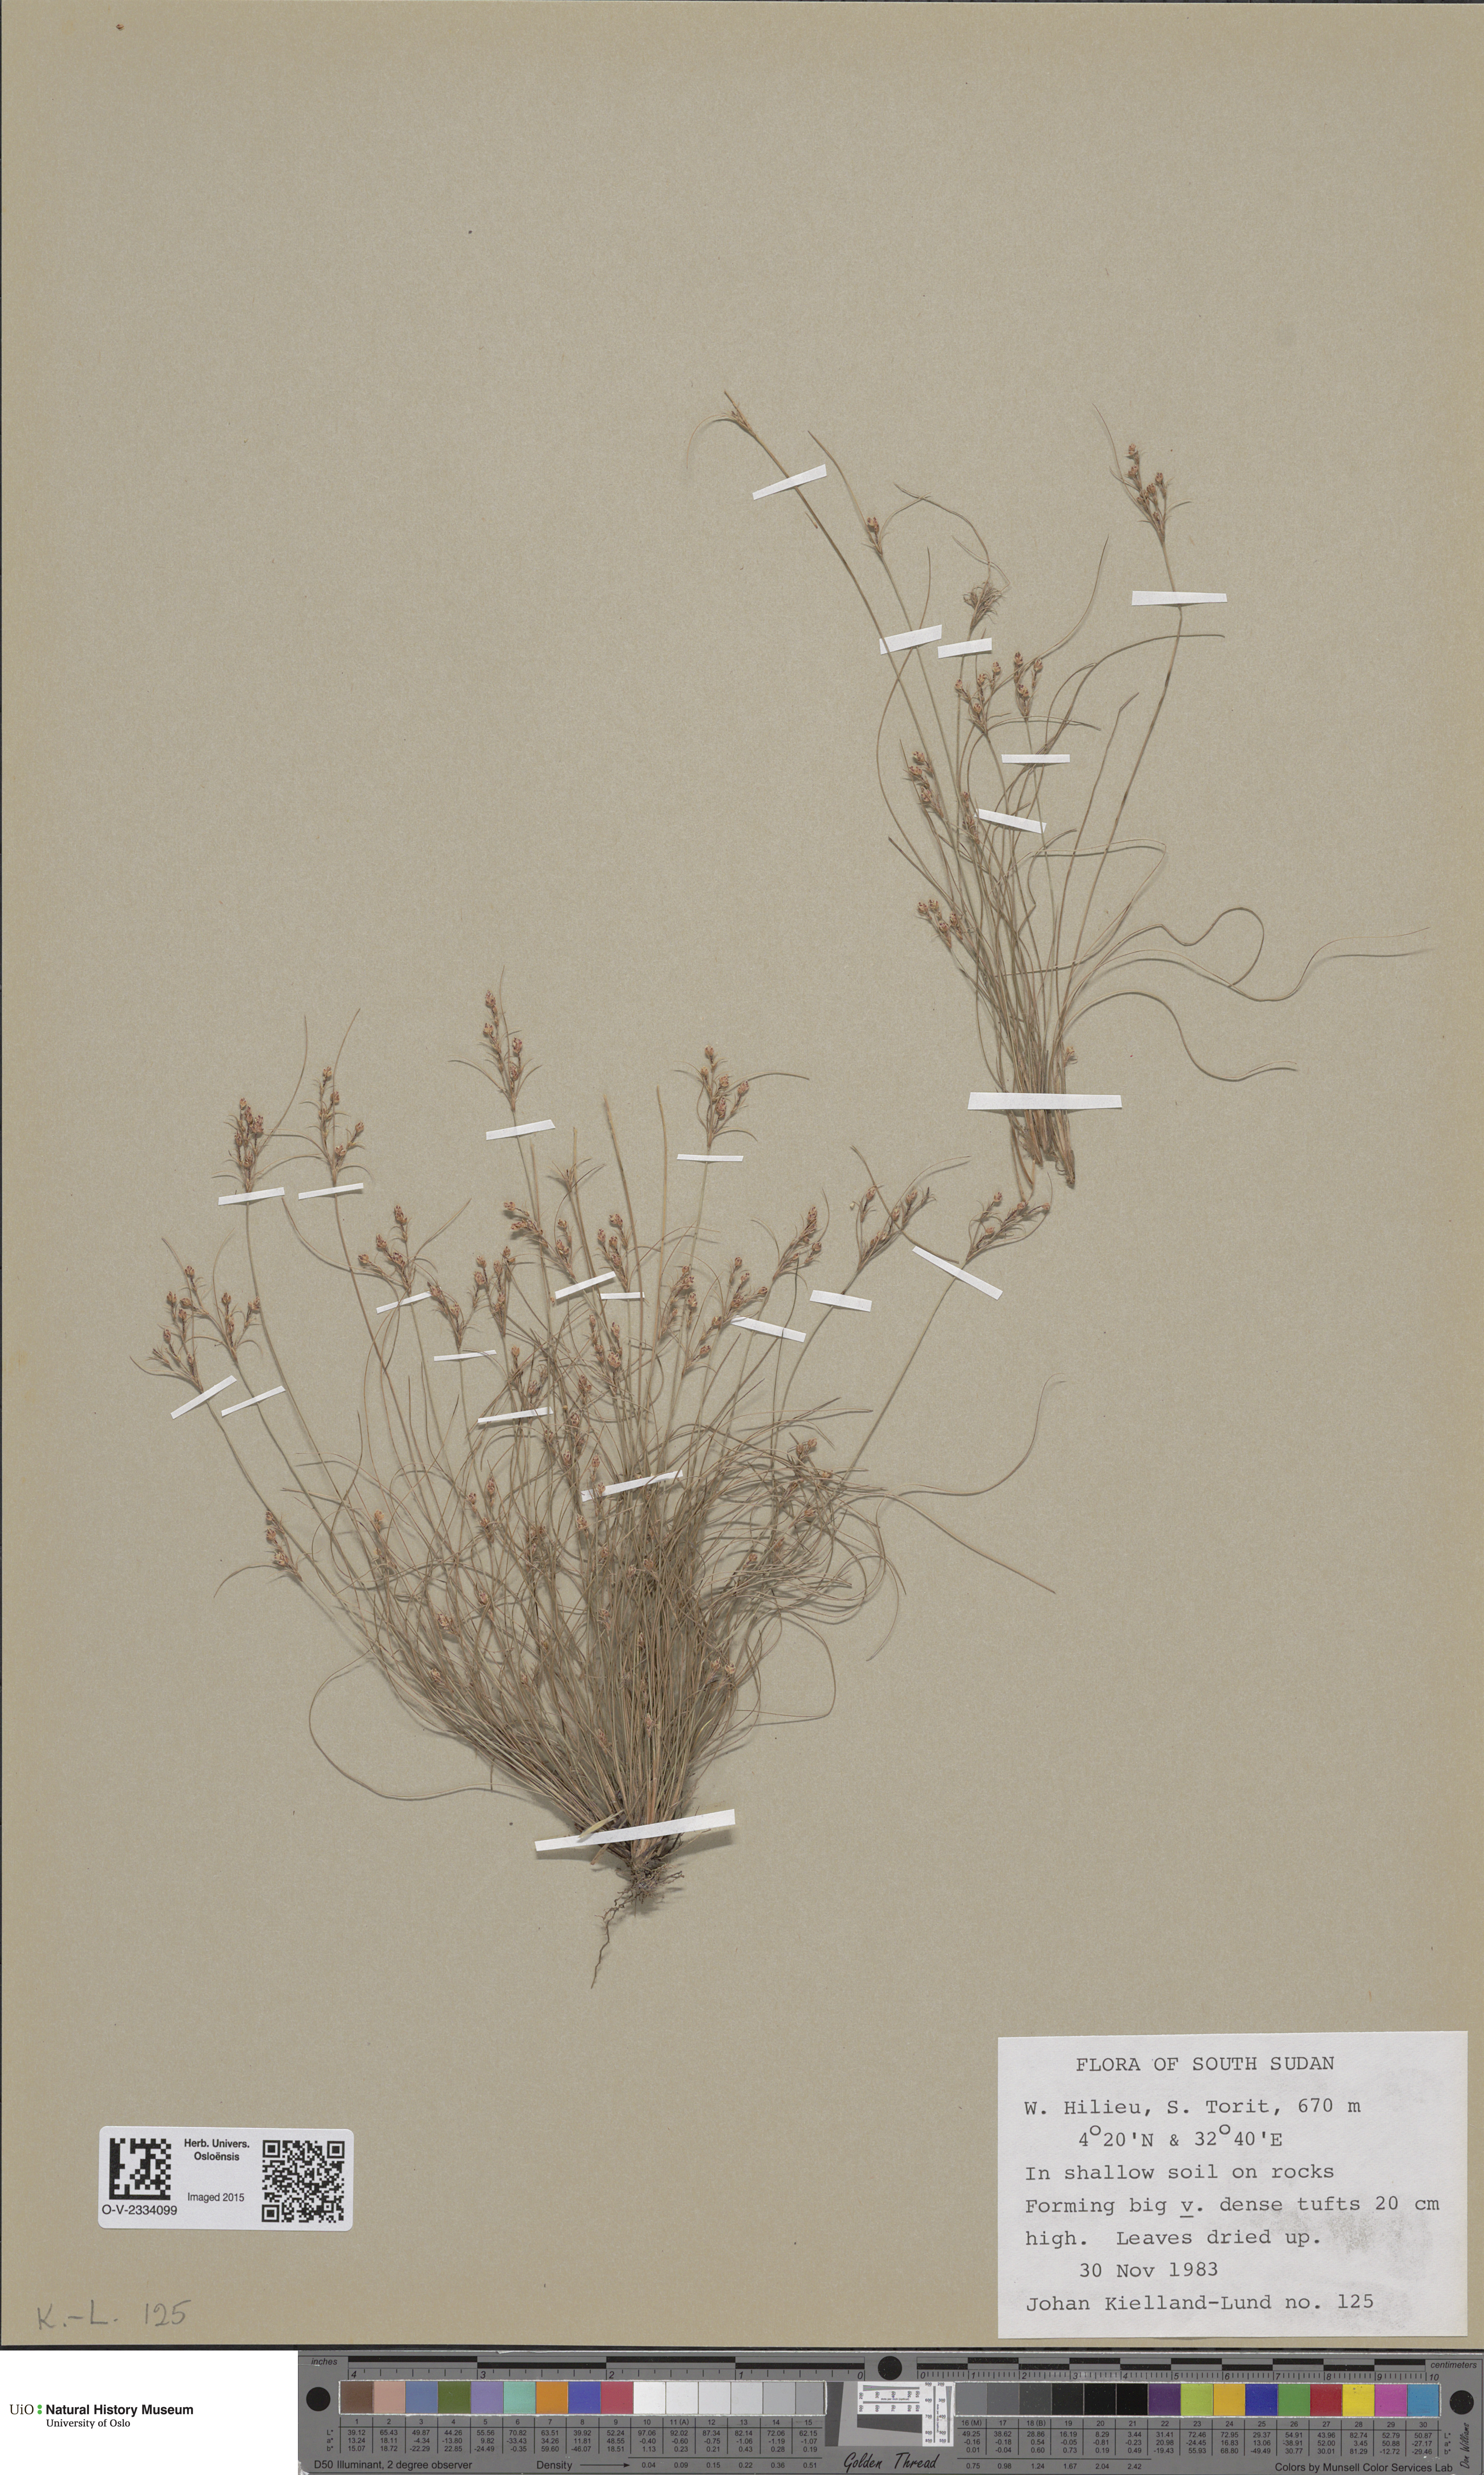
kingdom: Plantae
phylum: Tracheophyta
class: Magnoliopsida
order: Brassicales
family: Brassicaceae
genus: Draba
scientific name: Draba alpina
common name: Alpine draba
